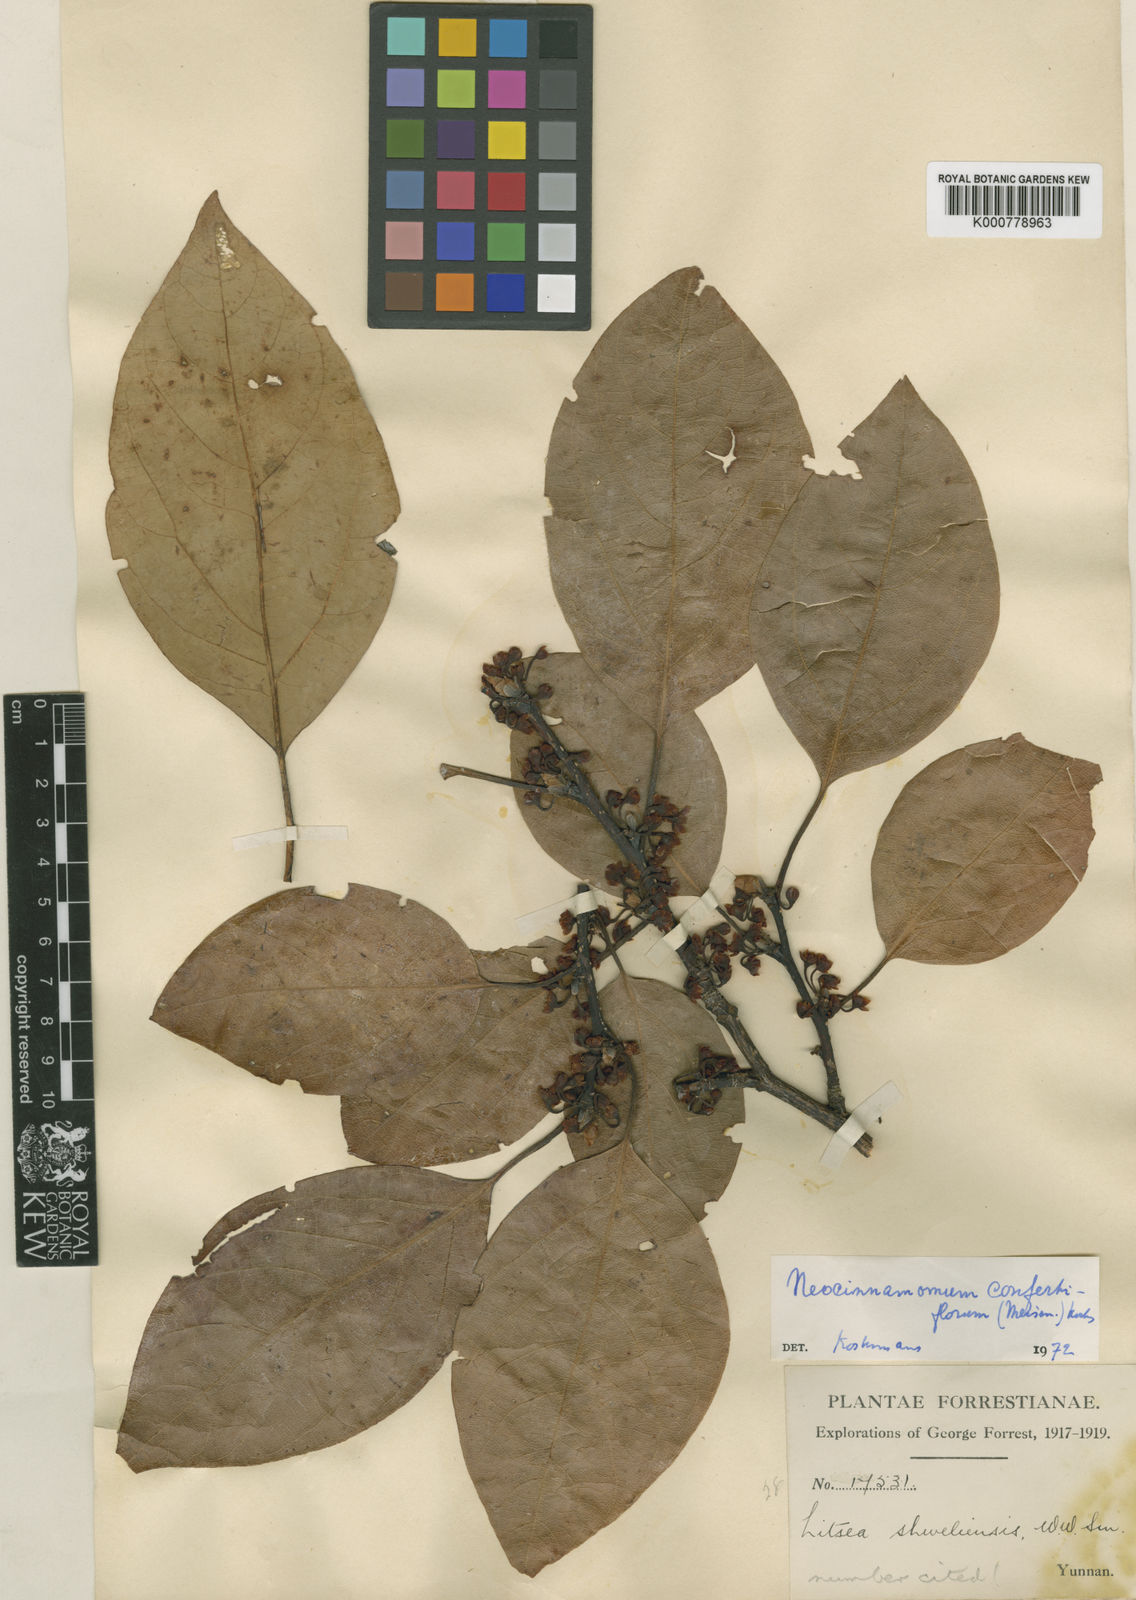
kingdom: Plantae
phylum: Tracheophyta
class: Magnoliopsida
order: Laurales
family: Lauraceae
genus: Parasassafras
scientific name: Parasassafras confertiflora
